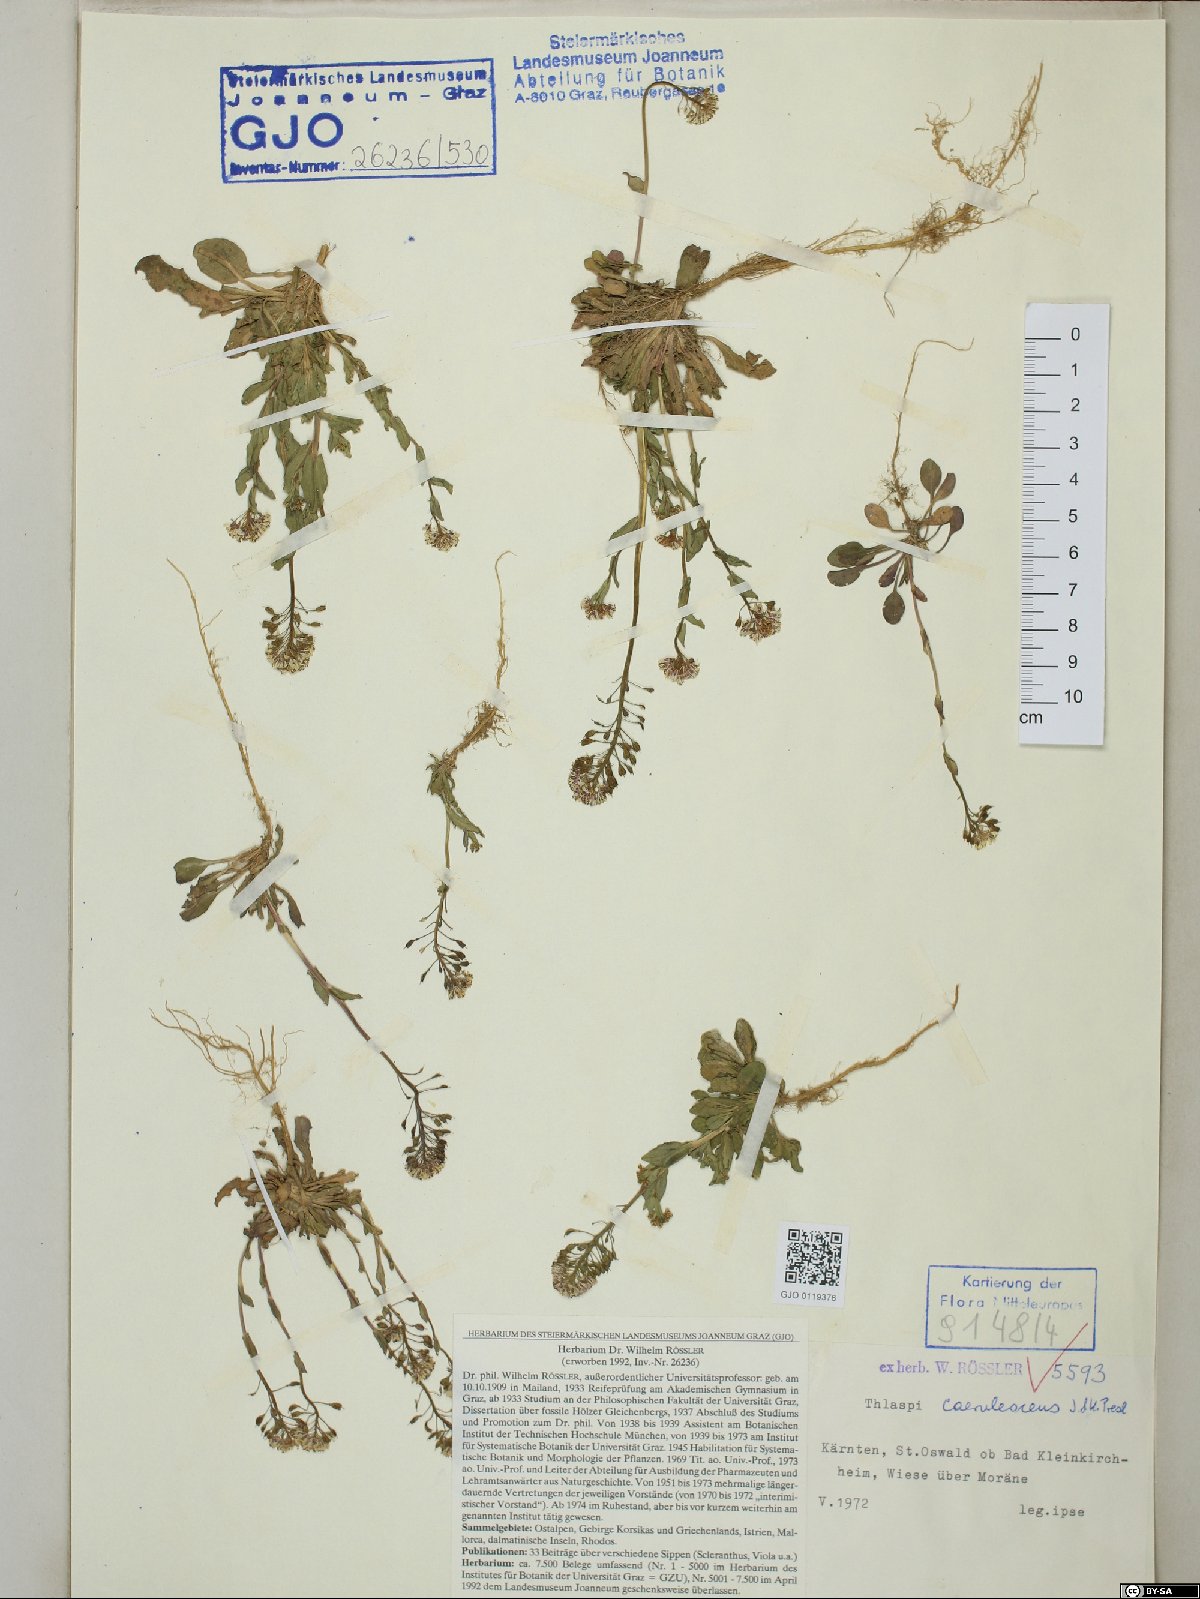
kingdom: Plantae
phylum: Tracheophyta
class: Magnoliopsida
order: Brassicales
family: Brassicaceae
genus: Noccaea
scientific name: Noccaea caerulescens
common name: Alpine pennycress
